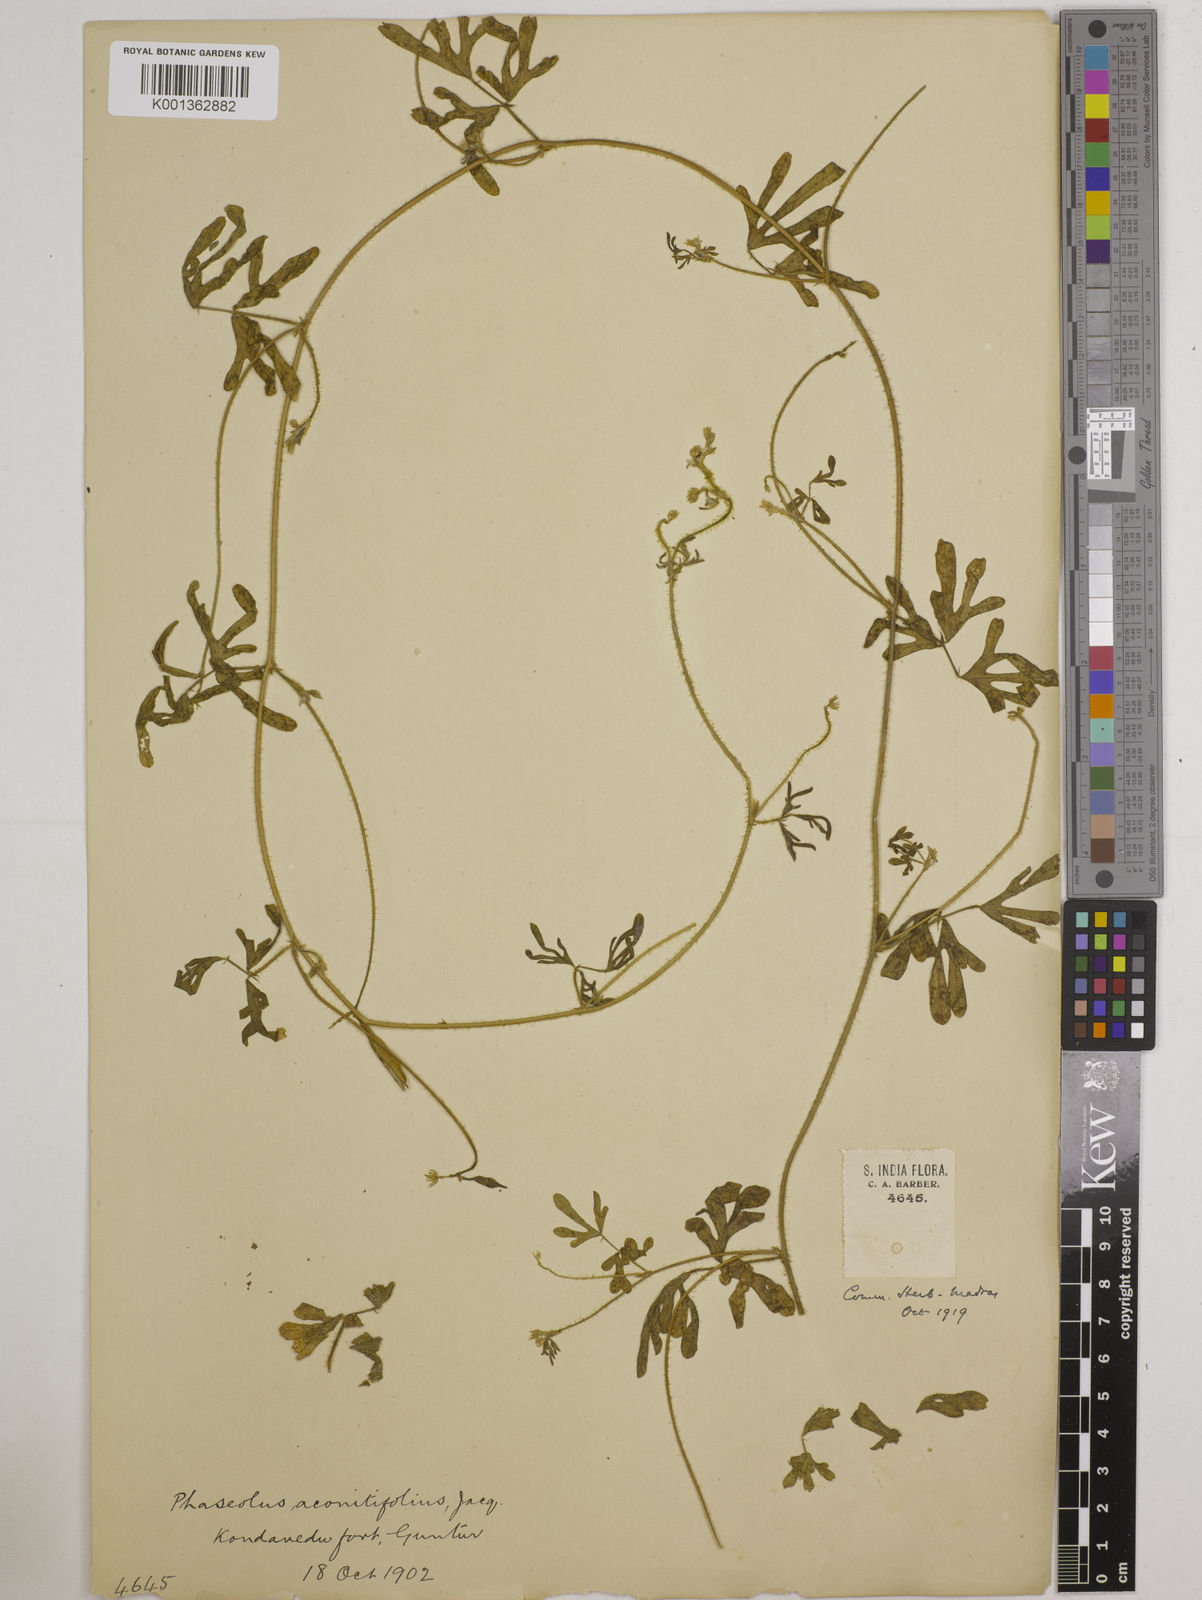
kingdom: Plantae
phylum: Tracheophyta
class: Magnoliopsida
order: Fabales
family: Fabaceae
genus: Vigna
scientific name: Vigna aconitifolia
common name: Dew bean
